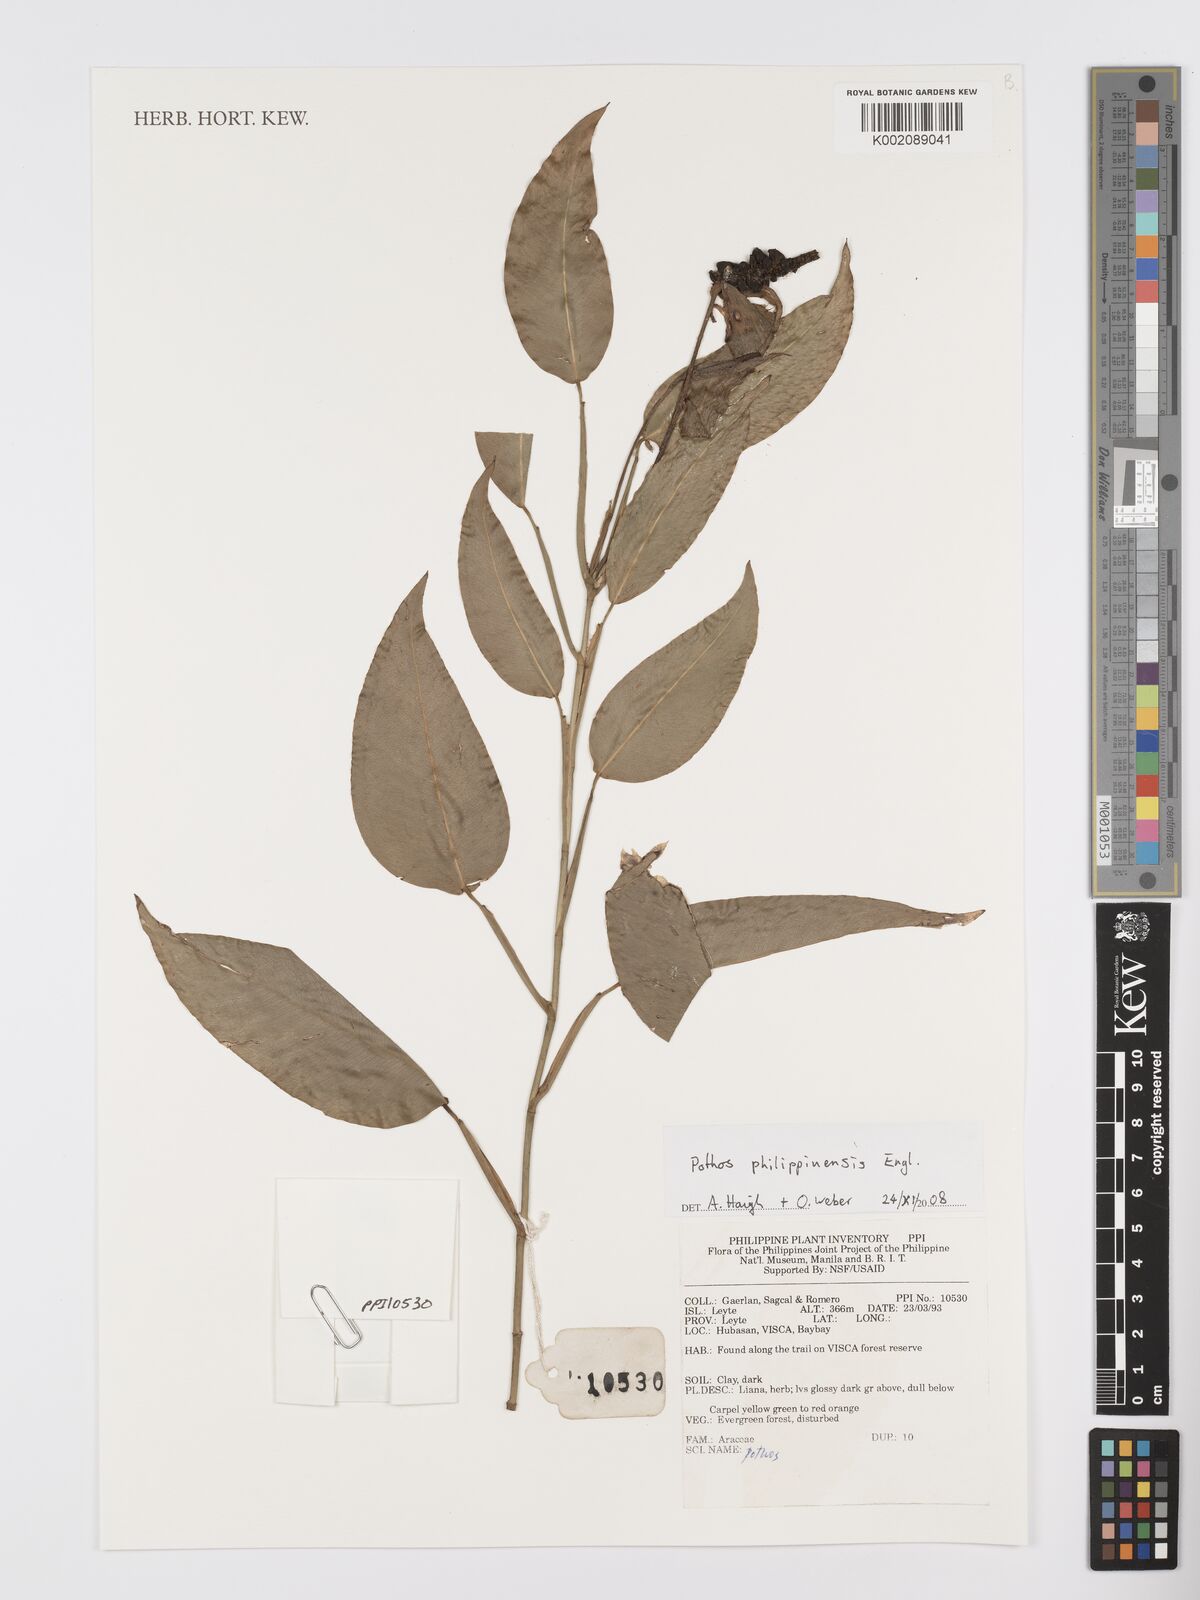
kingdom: Plantae
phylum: Tracheophyta
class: Liliopsida
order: Alismatales
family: Araceae
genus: Pothos
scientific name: Pothos philippinensis
